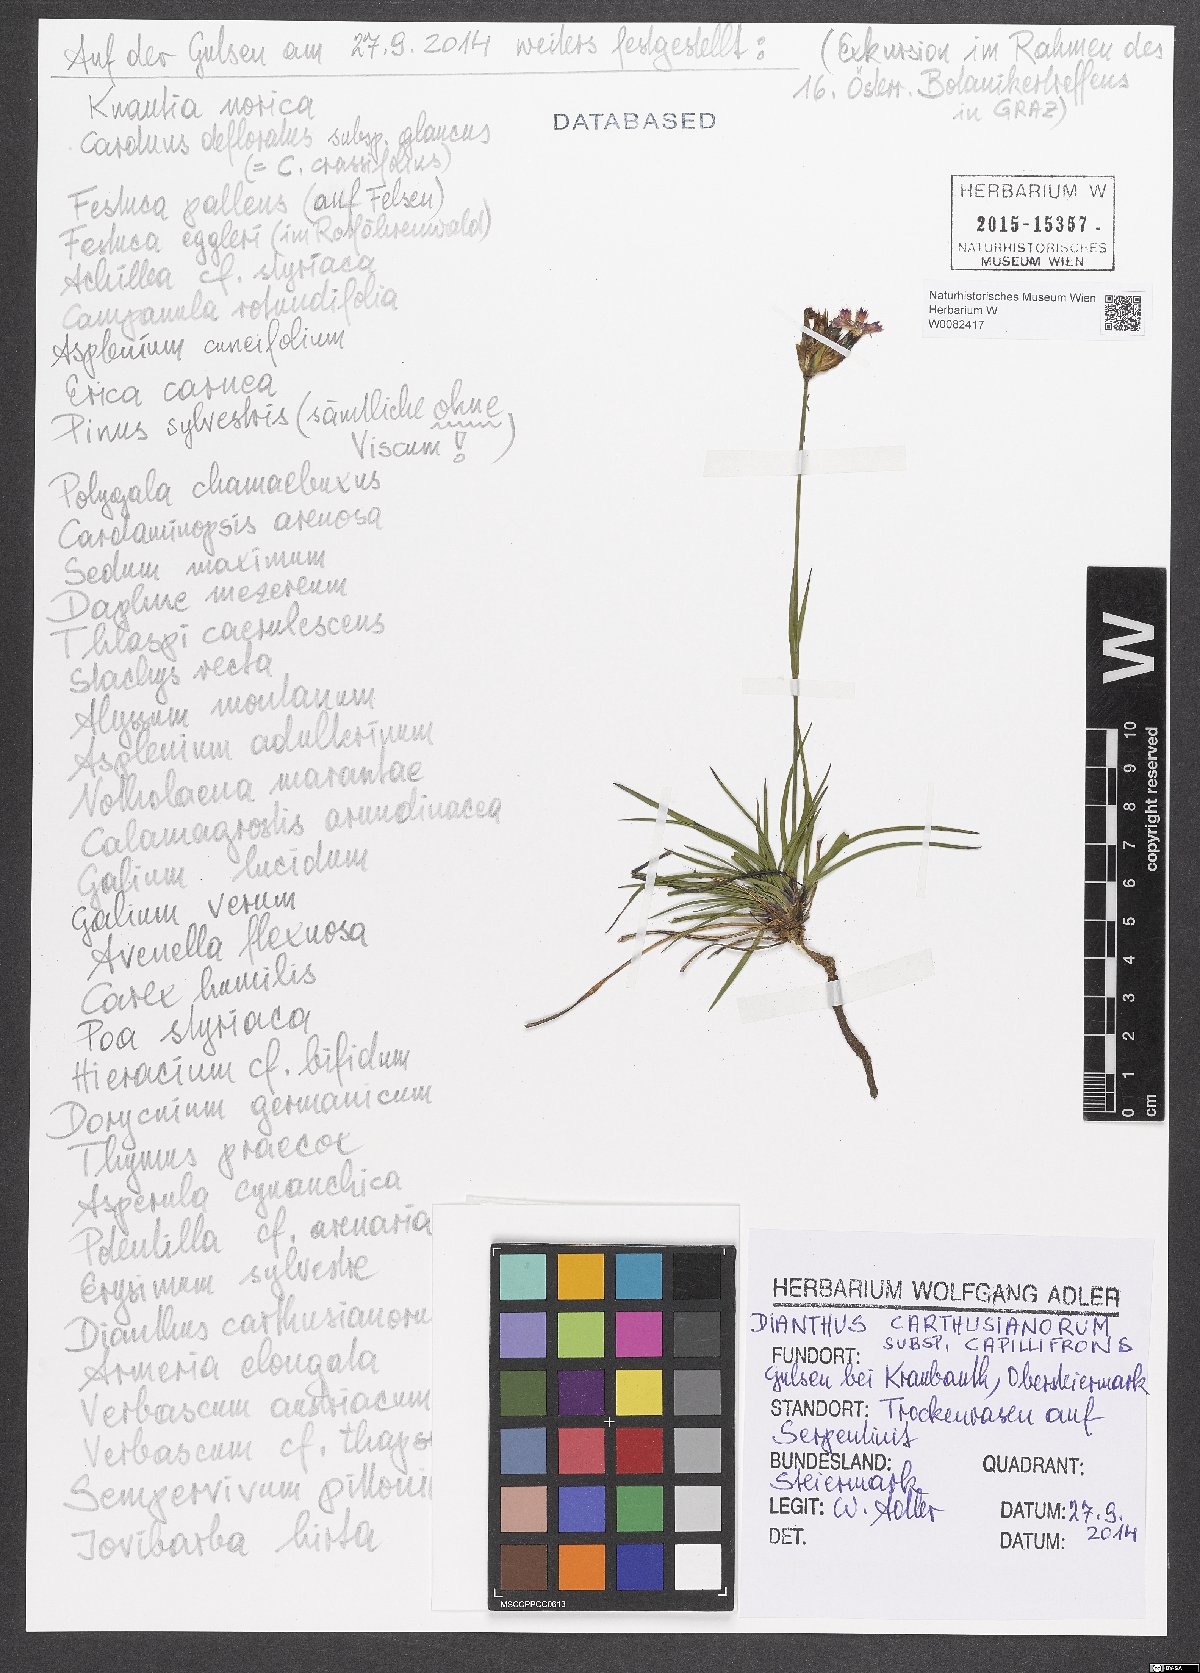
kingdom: Plantae
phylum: Tracheophyta
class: Magnoliopsida
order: Caryophyllales
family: Caryophyllaceae
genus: Dianthus
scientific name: Dianthus carthusianorum
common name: Carthusian pink
